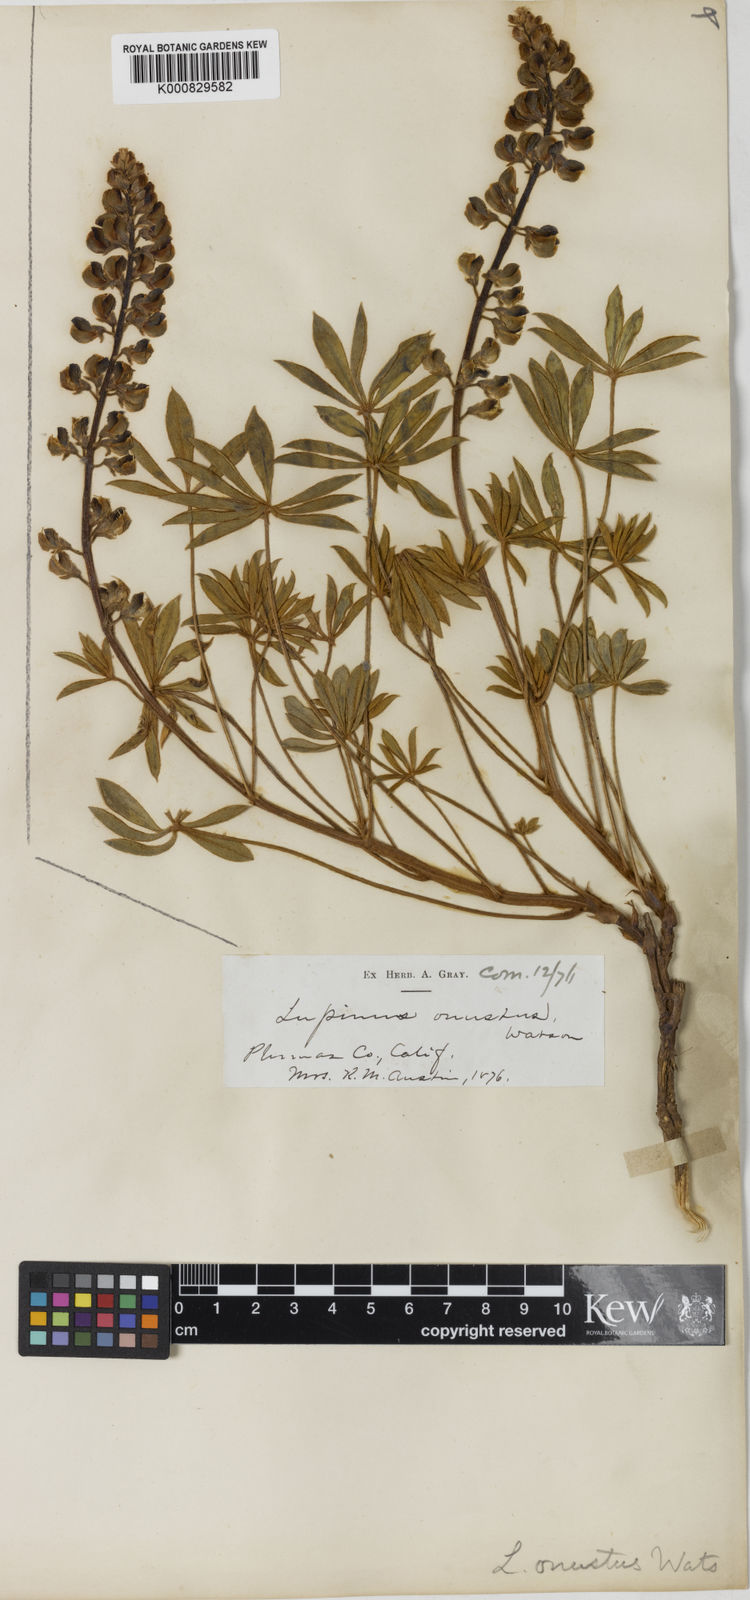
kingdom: Plantae
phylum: Tracheophyta
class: Magnoliopsida
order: Fabales
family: Fabaceae
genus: Lupinus
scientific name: Lupinus onustus
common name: Yellow pine lupine
